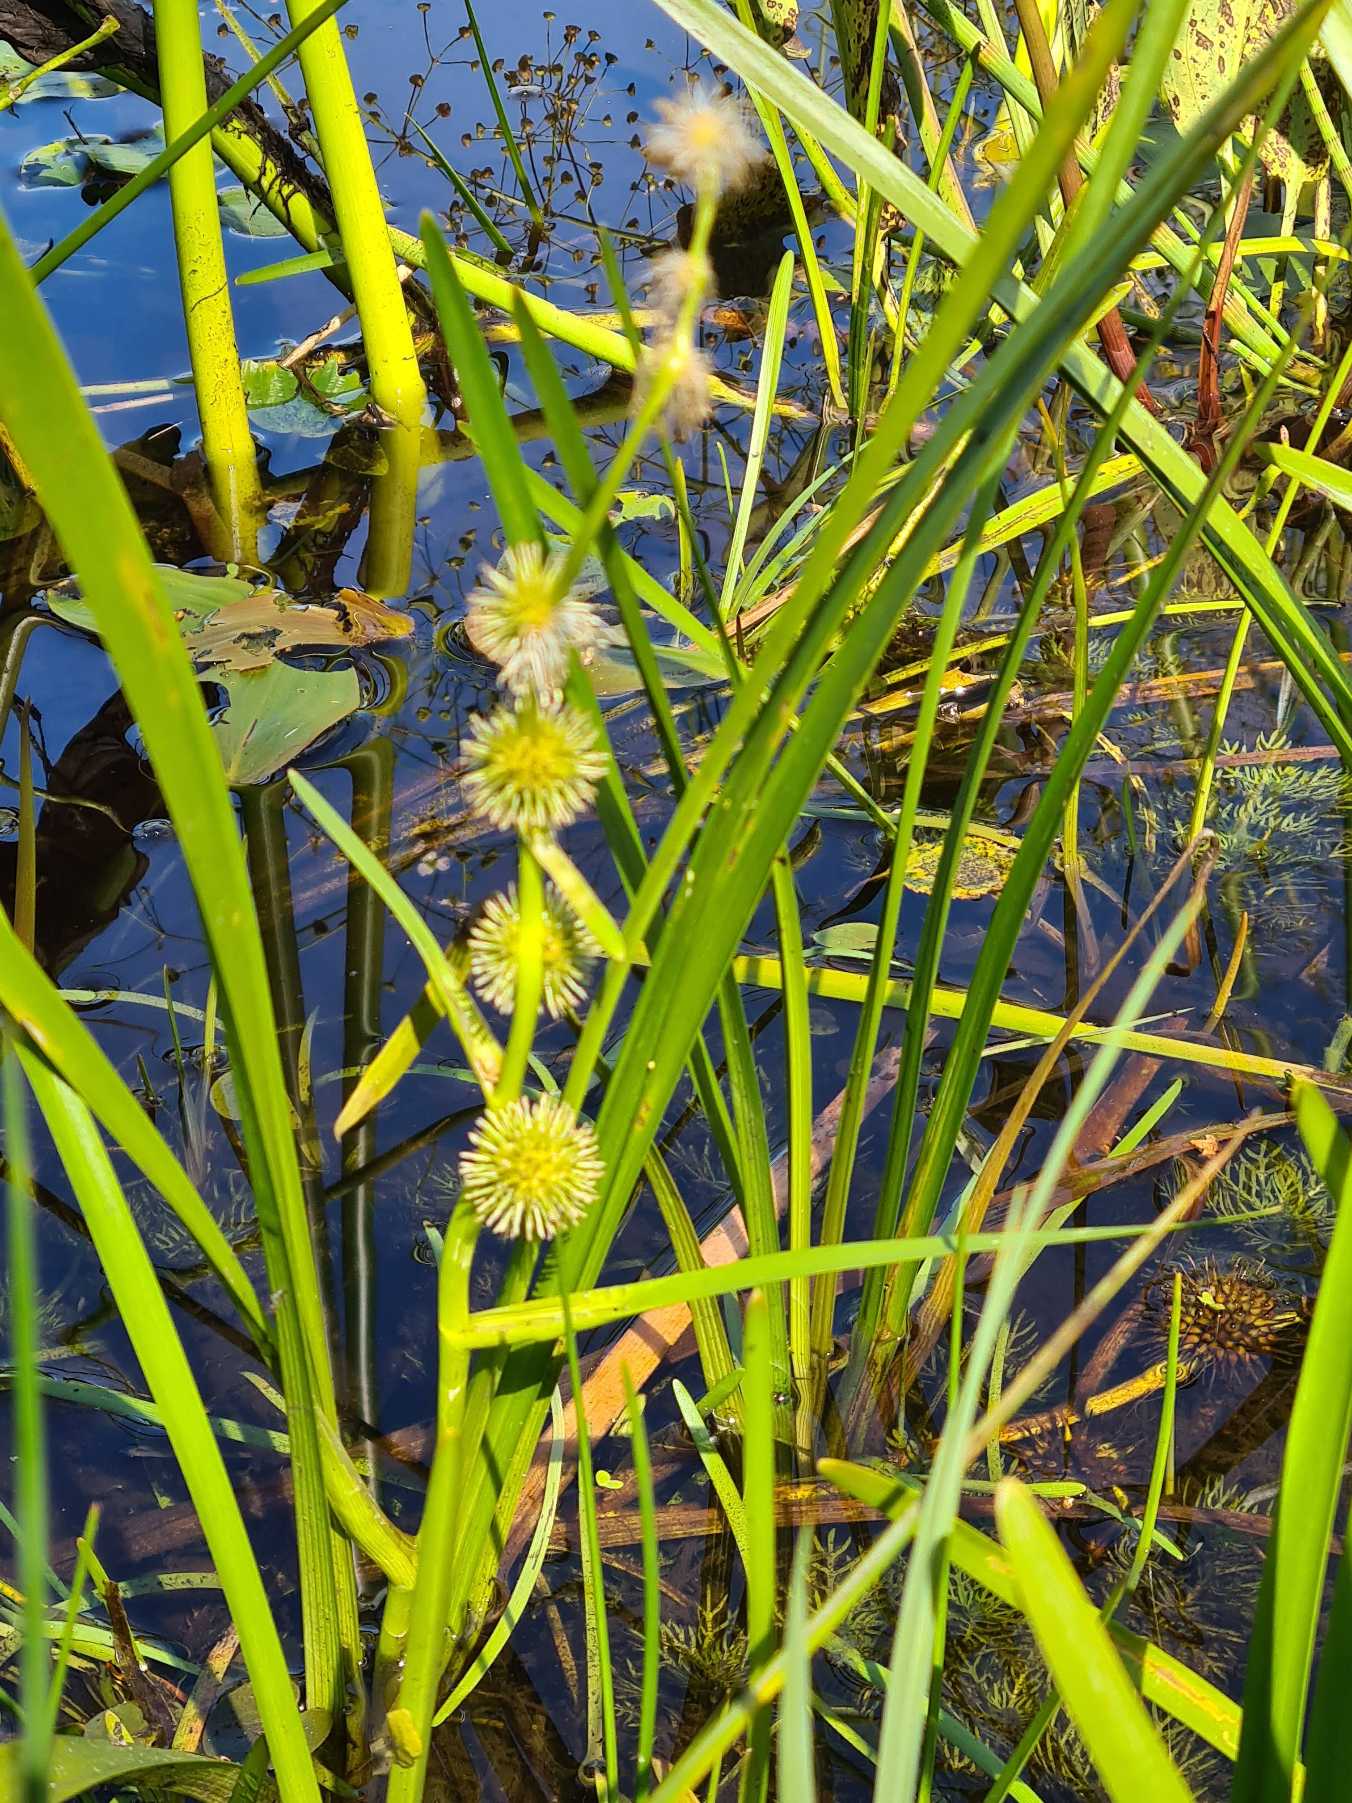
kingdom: Plantae
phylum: Tracheophyta
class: Liliopsida
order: Poales
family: Typhaceae
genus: Sparganium
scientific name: Sparganium emersum
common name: Enkelt pindsvineknop
